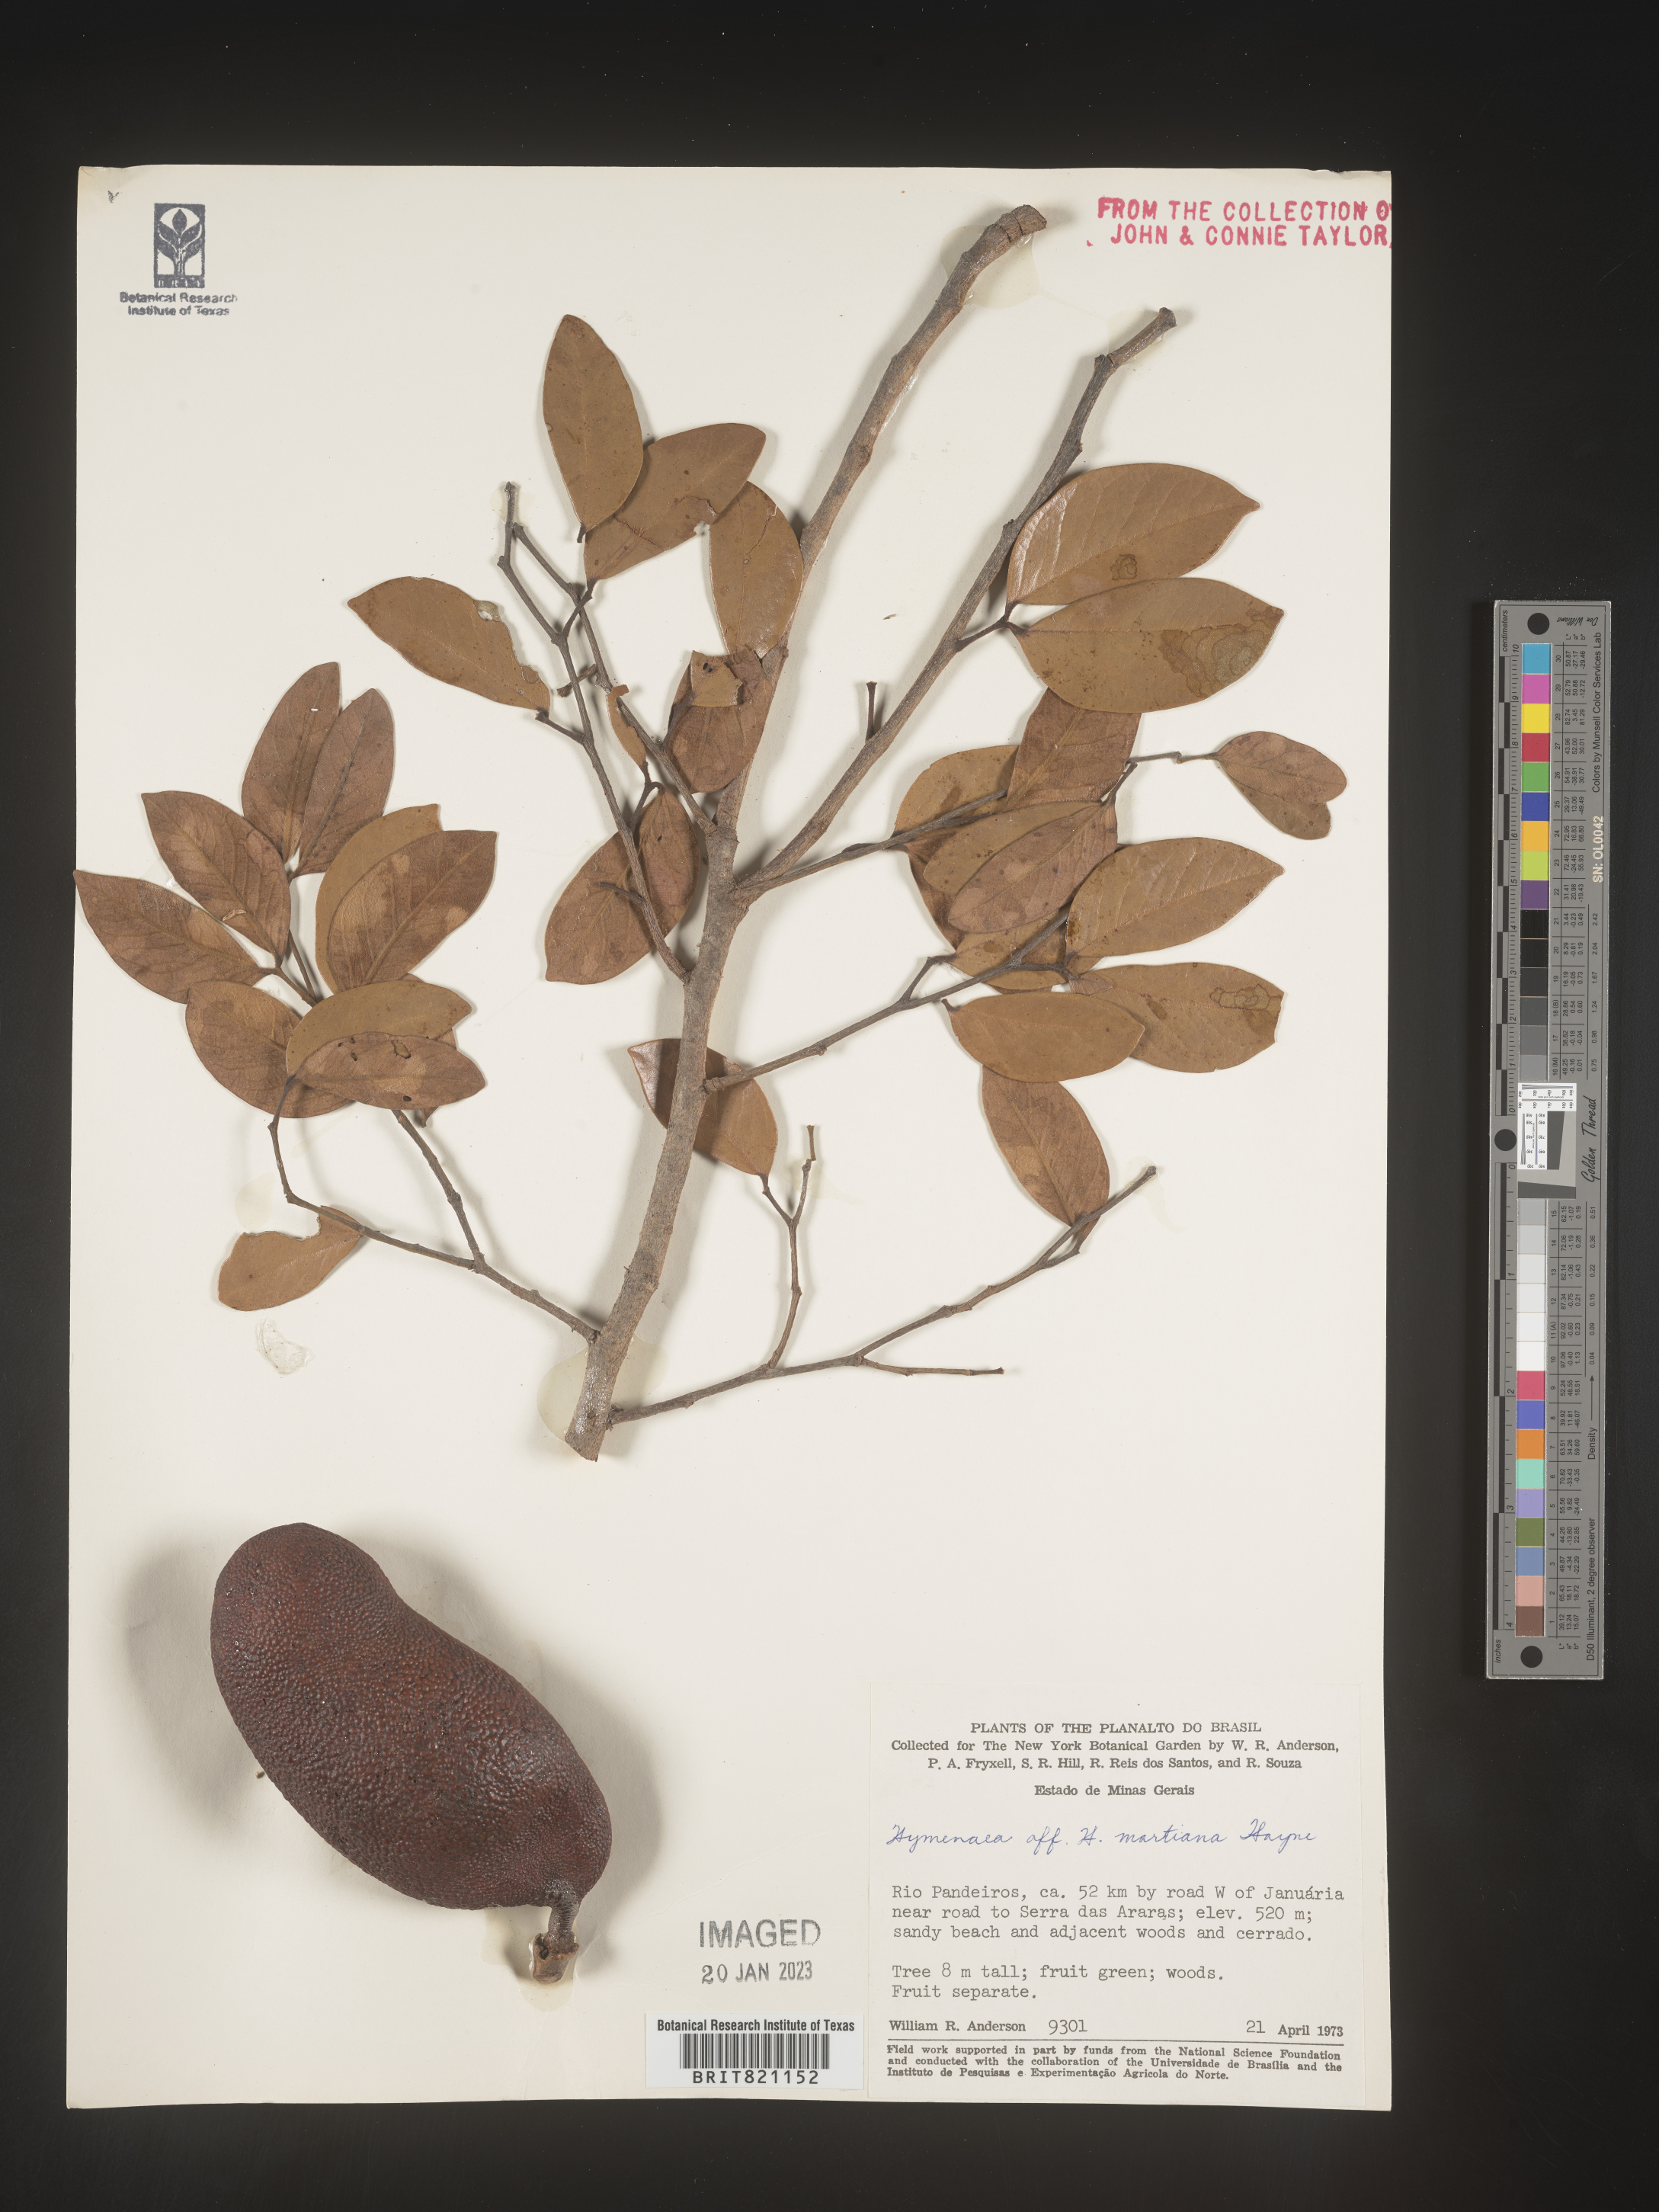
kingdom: Plantae
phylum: Tracheophyta
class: Magnoliopsida
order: Fabales
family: Fabaceae
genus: Hymenaea
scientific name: Hymenaea
